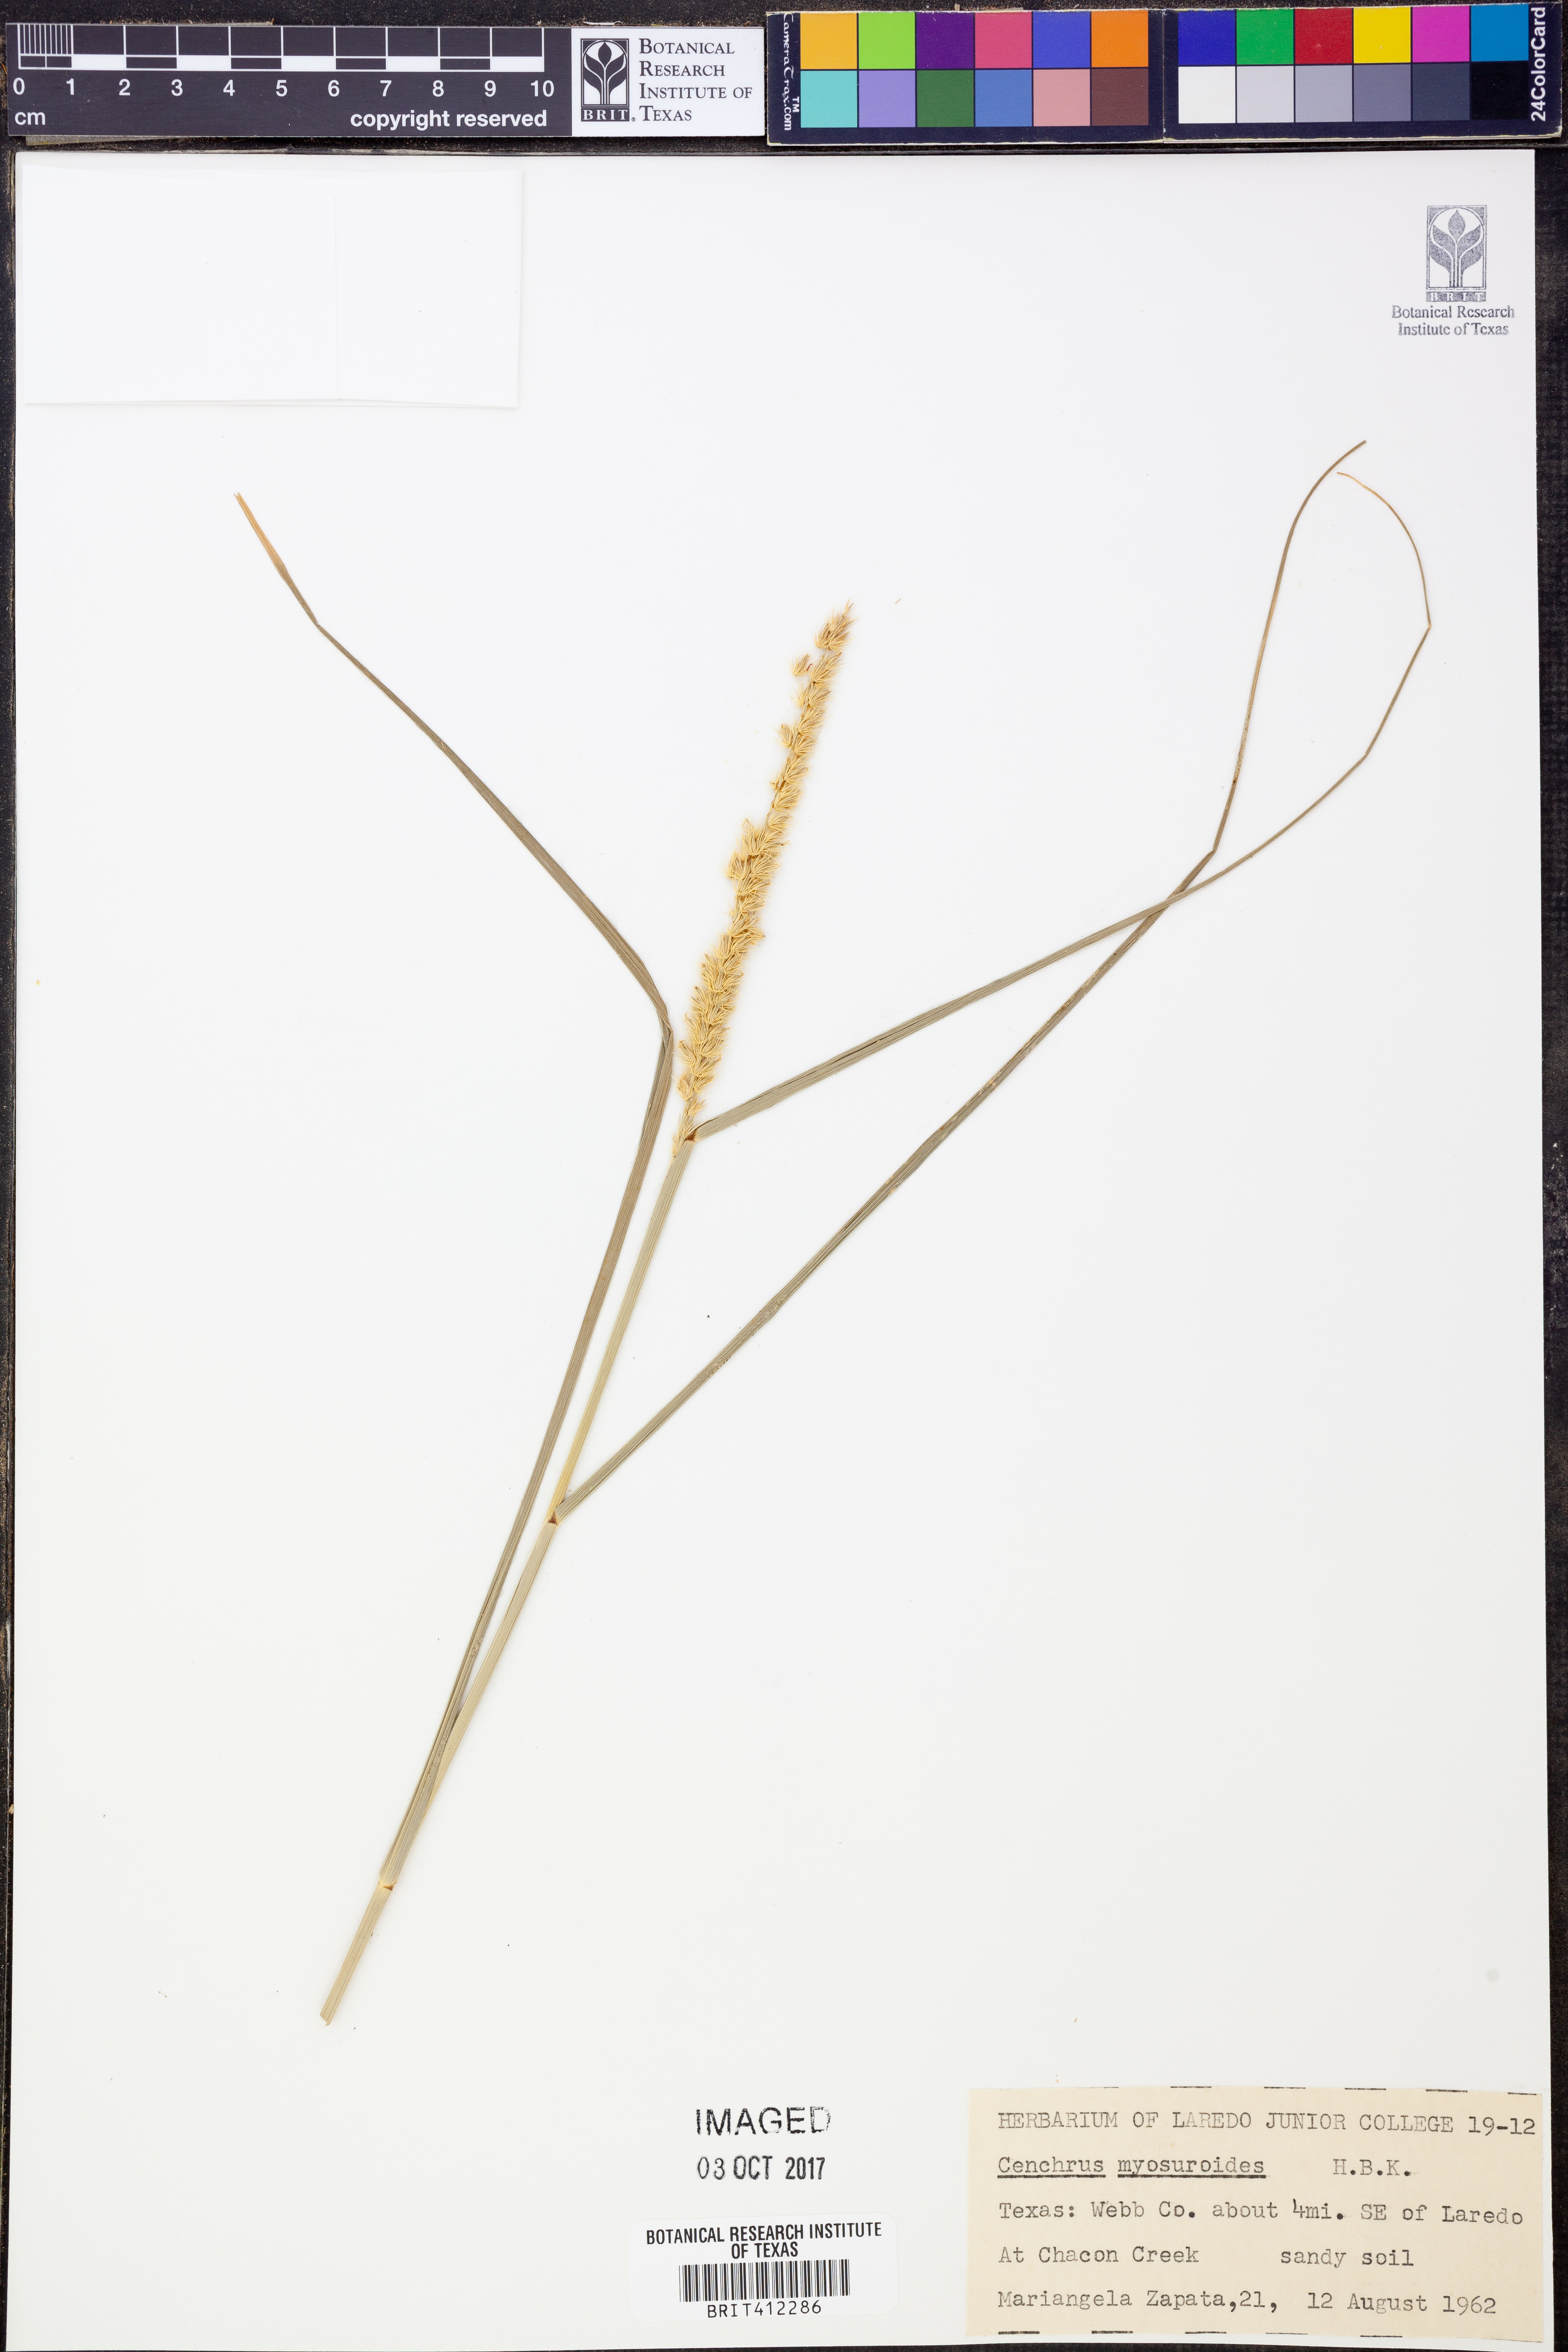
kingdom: Plantae
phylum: Tracheophyta
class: Liliopsida
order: Poales
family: Poaceae
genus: Cenchrus
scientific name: Cenchrus myosuroides
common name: Big sandbur
